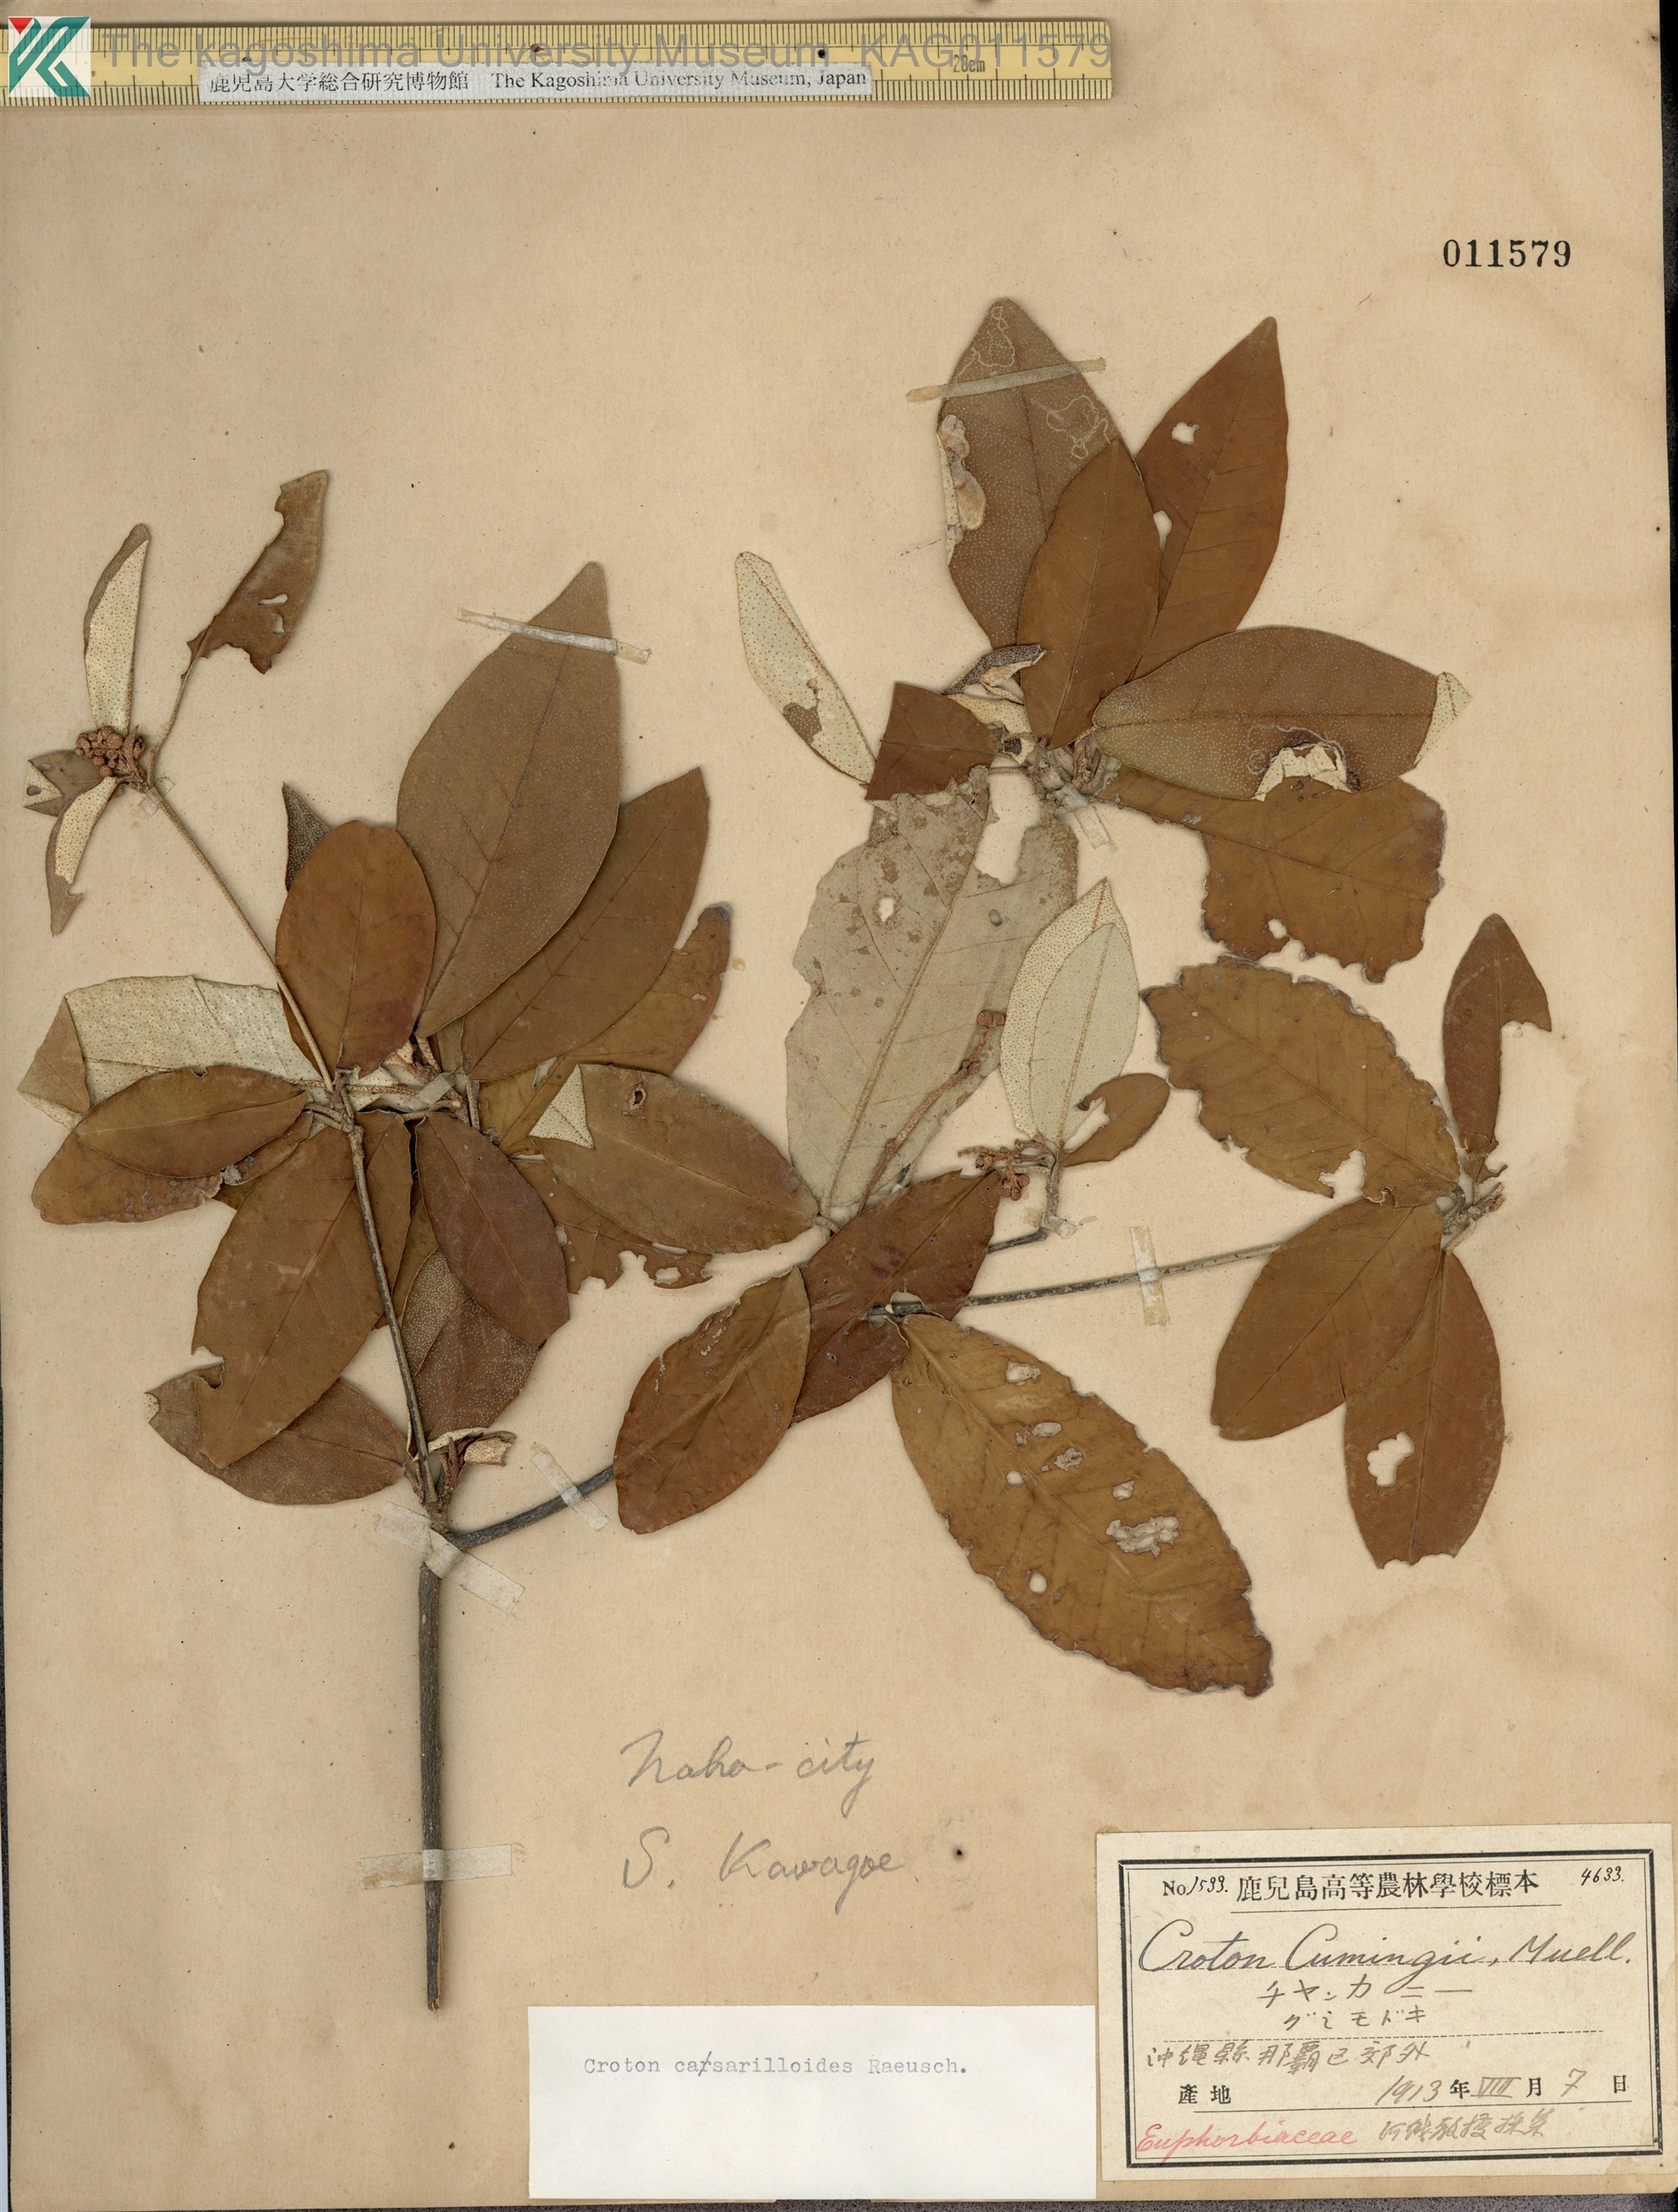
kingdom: Plantae
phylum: Tracheophyta
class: Magnoliopsida
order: Malpighiales
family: Euphorbiaceae
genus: Croton
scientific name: Croton cascarilloides
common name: グミモドキ
